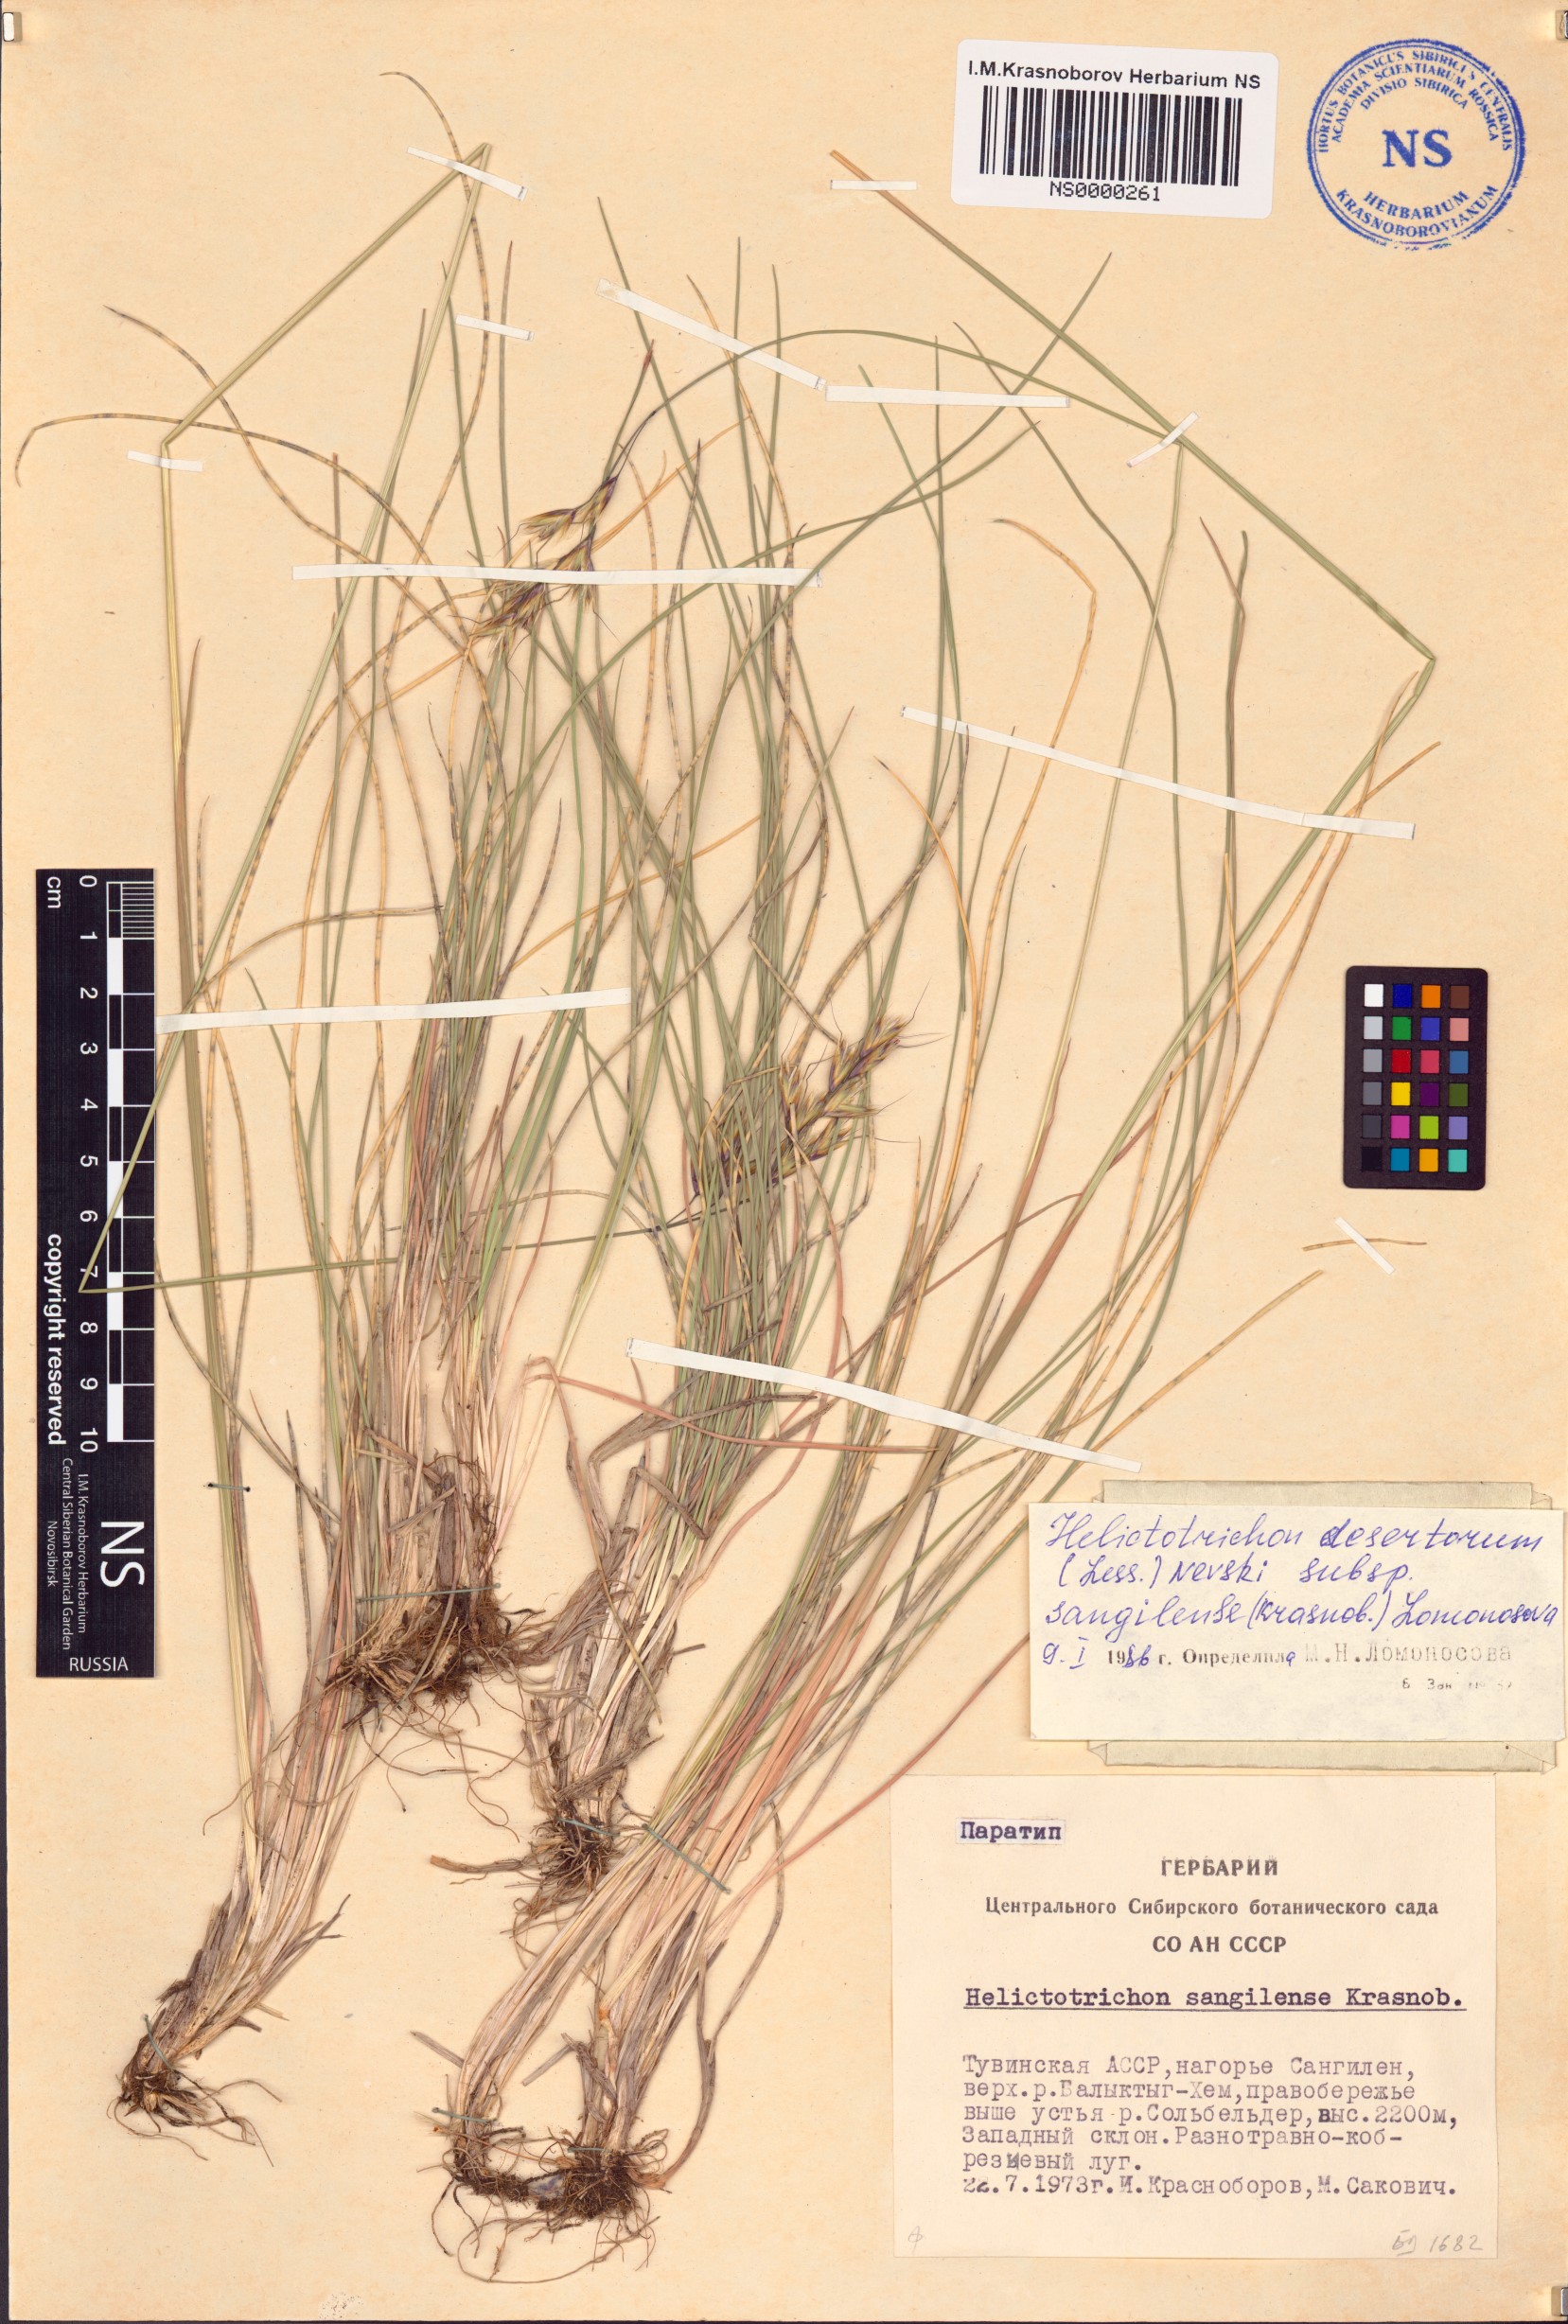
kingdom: Plantae
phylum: Tracheophyta
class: Liliopsida
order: Poales
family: Poaceae
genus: Helictotrichon
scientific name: Helictotrichon sangilense
